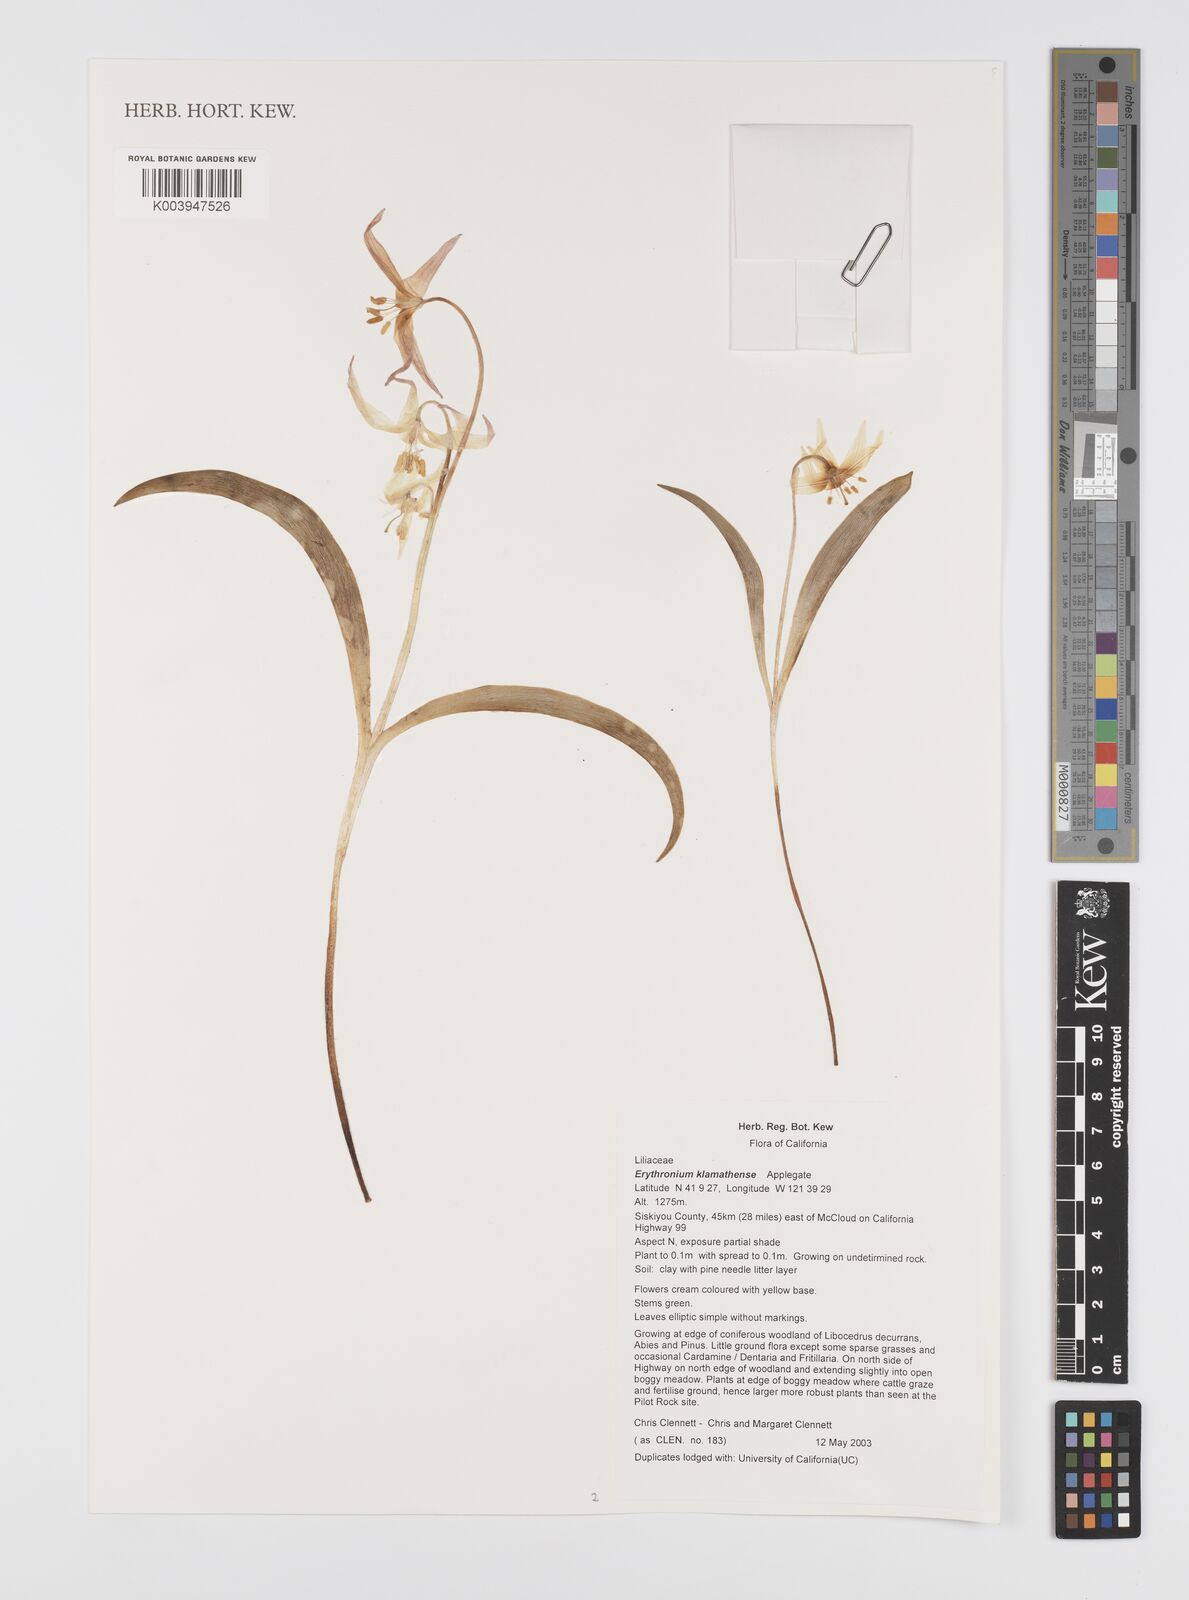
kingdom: Plantae
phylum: Tracheophyta
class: Liliopsida
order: Liliales
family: Liliaceae
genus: Erythronium
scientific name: Erythronium klamathense
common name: Klamath fawn-lily
